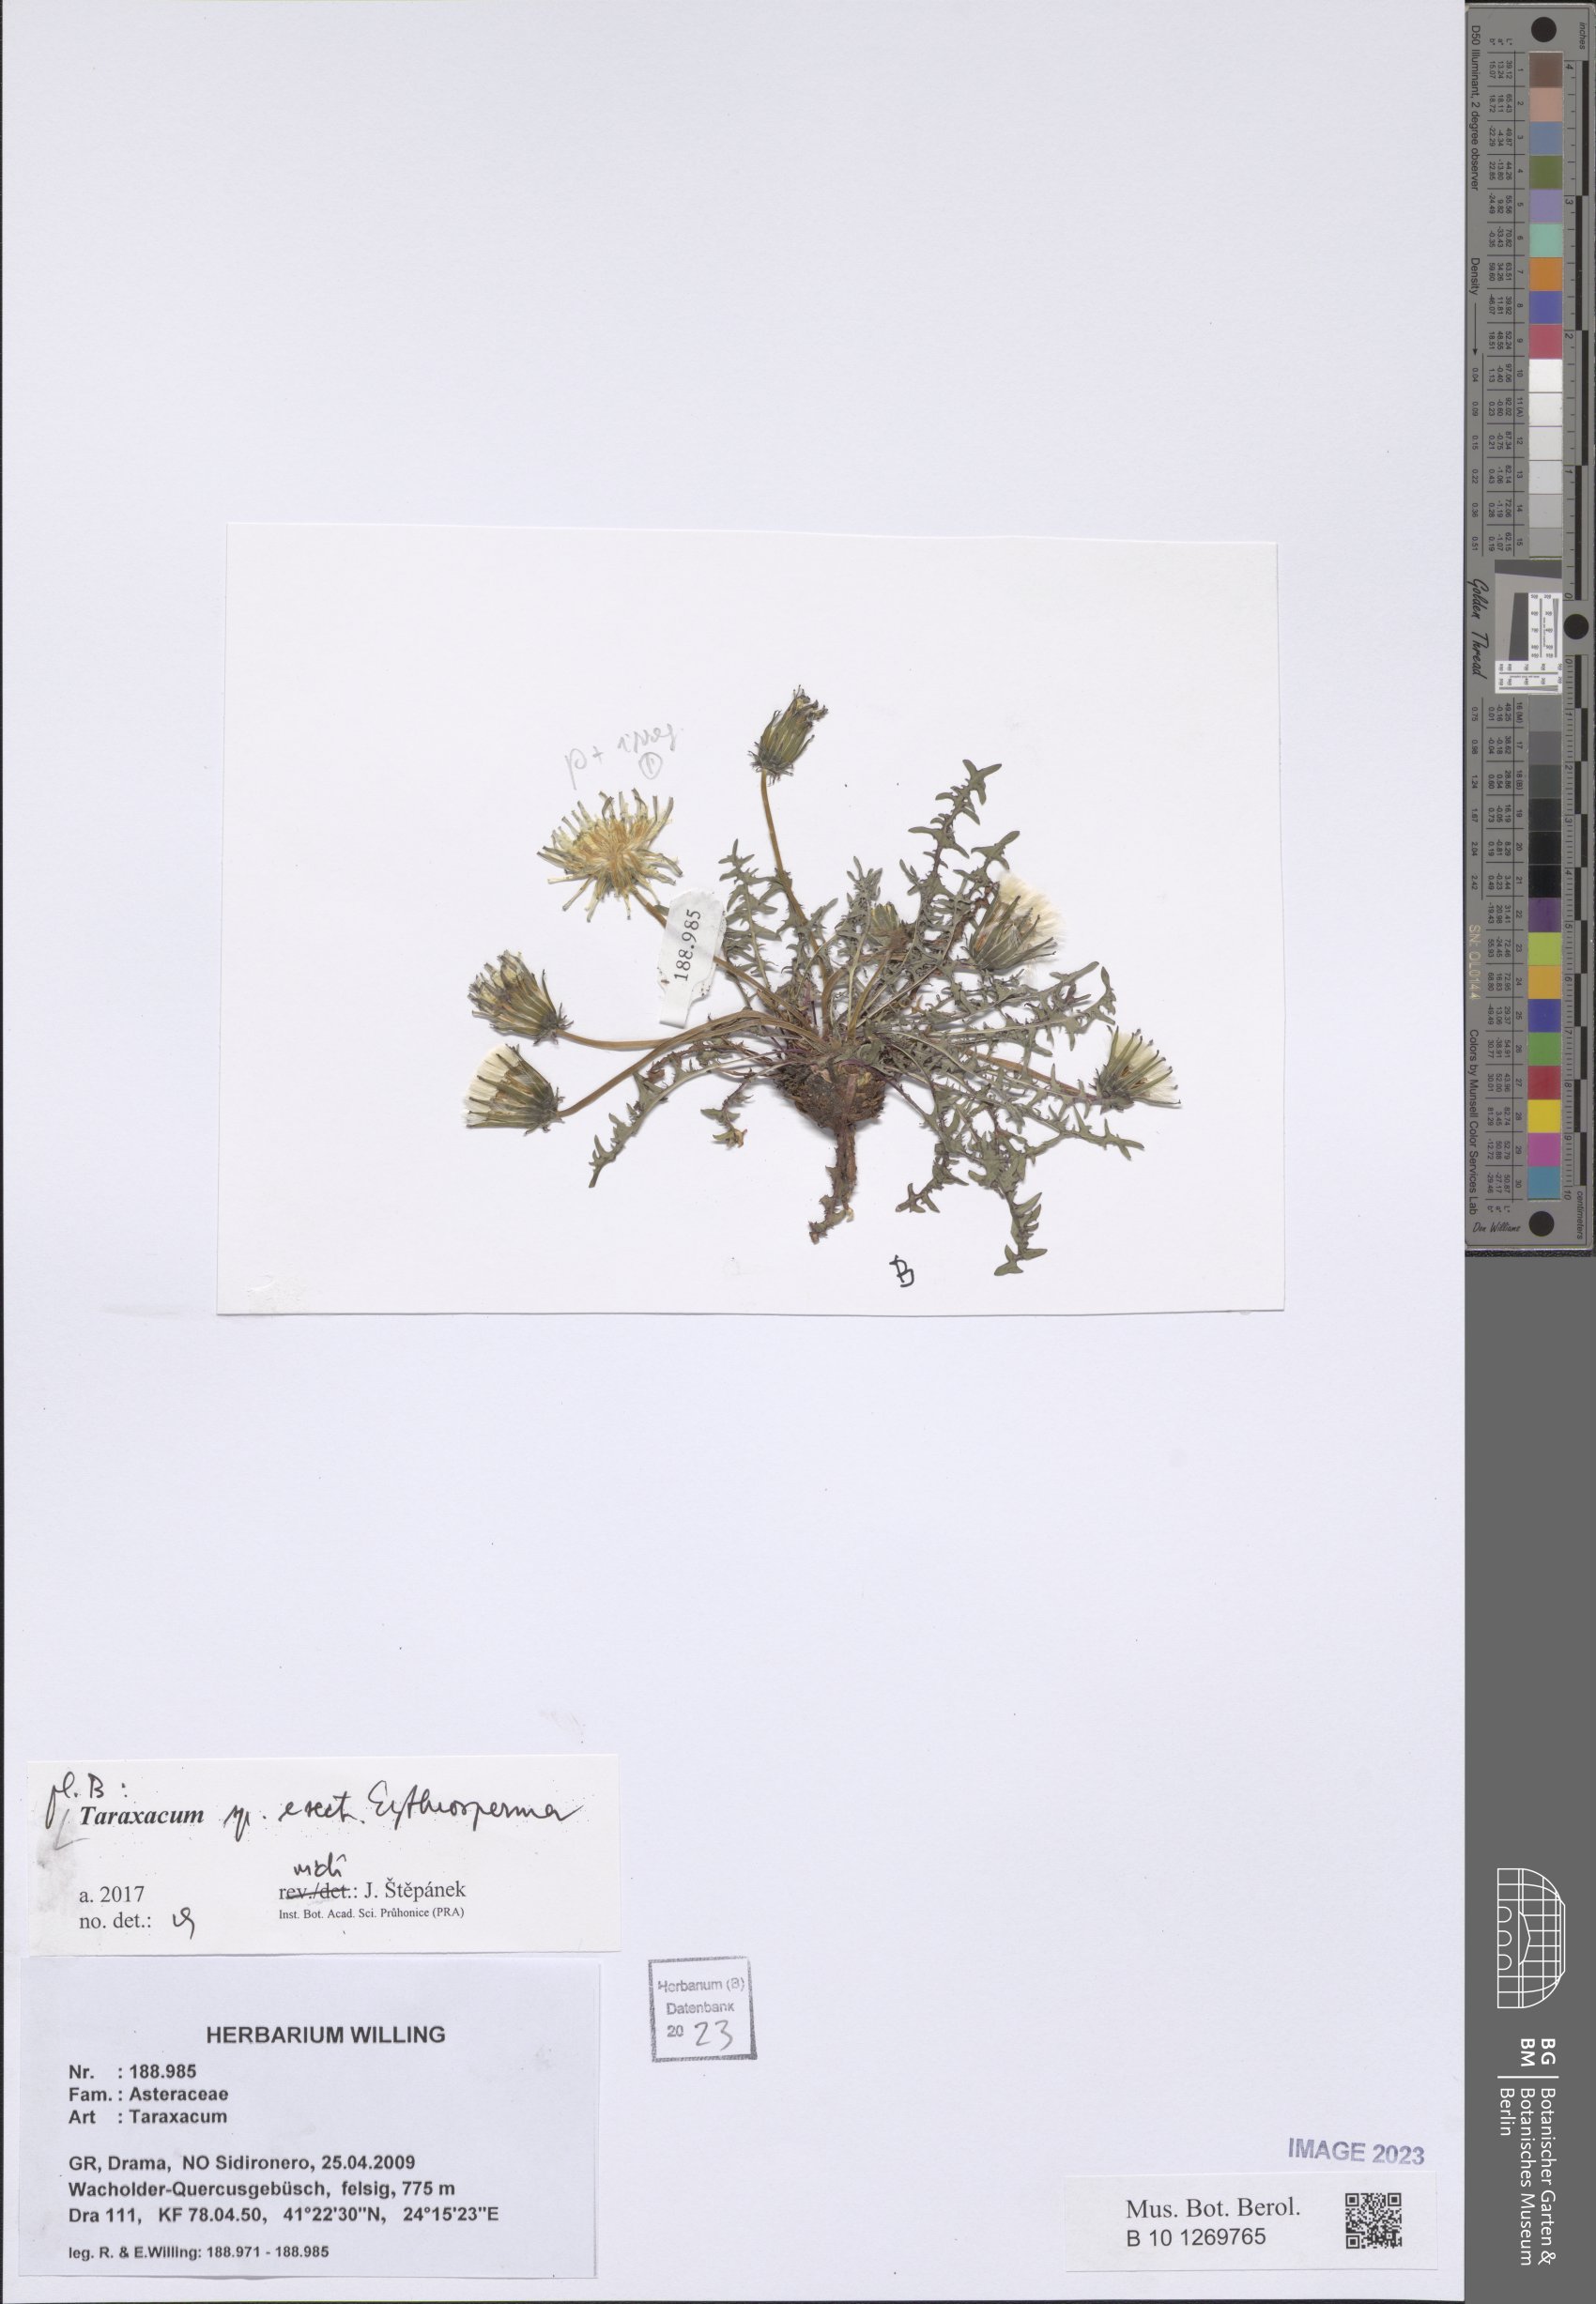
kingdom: Plantae
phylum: Tracheophyta
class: Magnoliopsida
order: Asterales
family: Asteraceae
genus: Taraxacum
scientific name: Taraxacum
